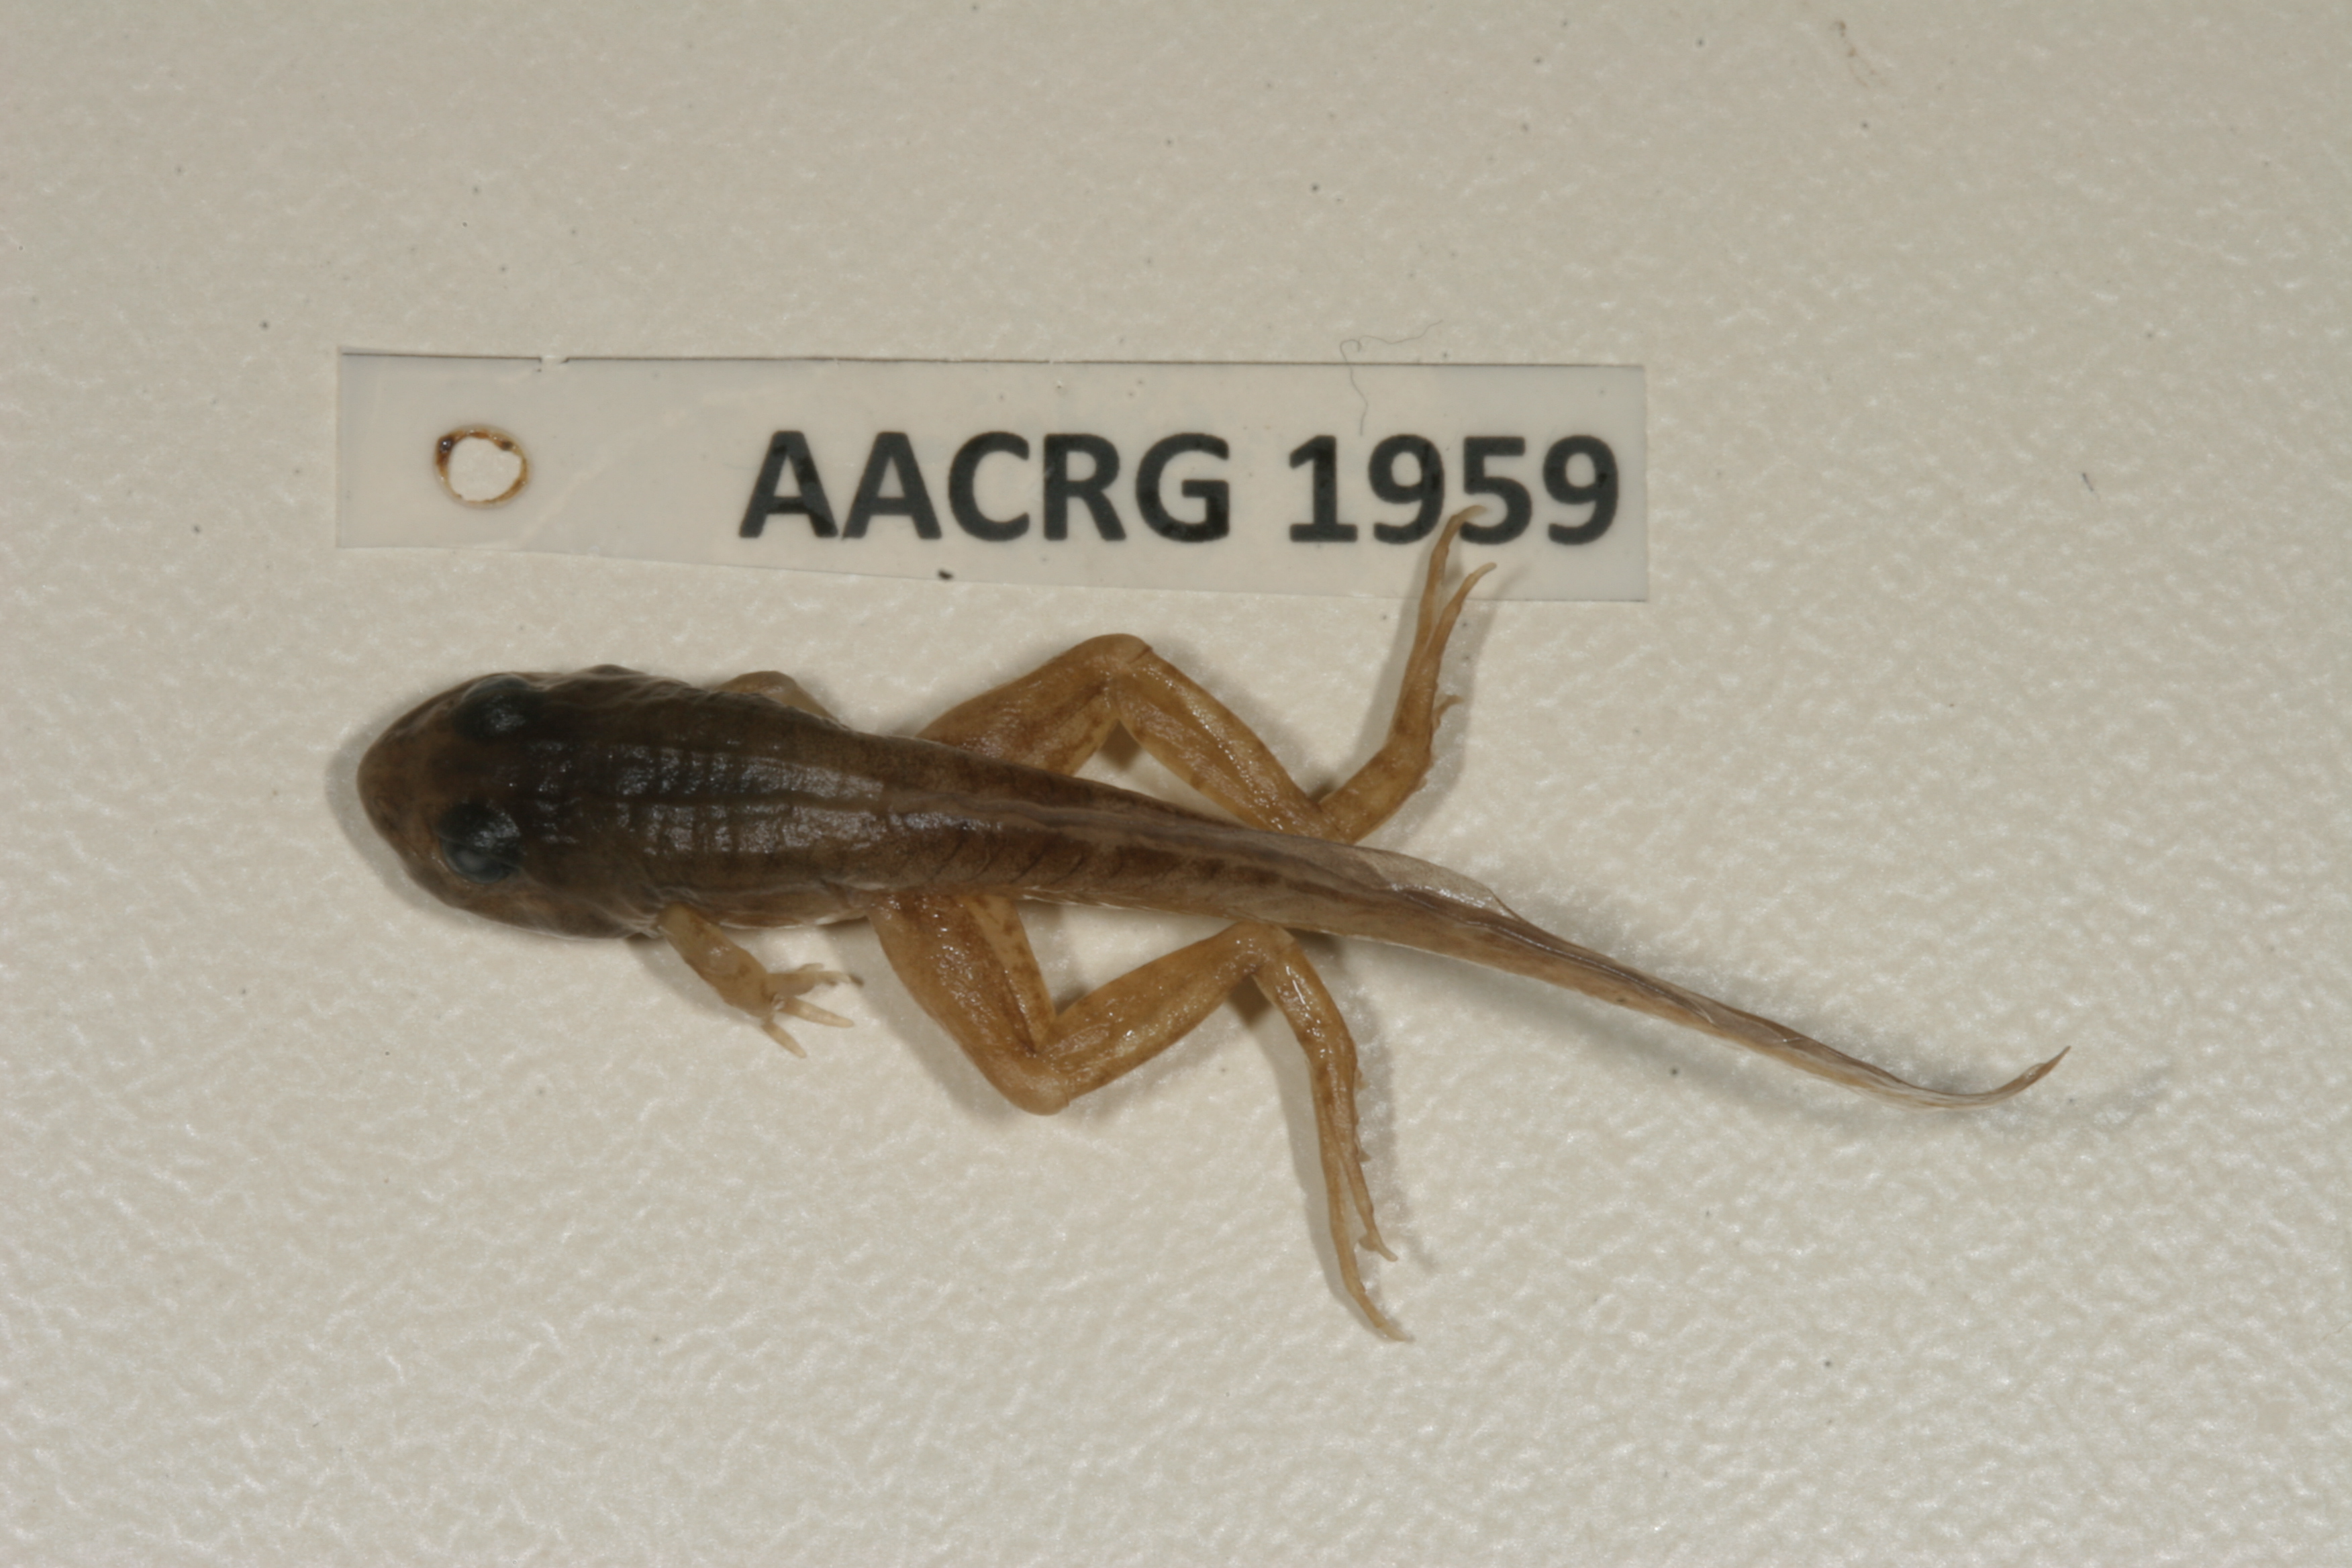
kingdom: Animalia
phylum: Chordata
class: Amphibia
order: Anura
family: Ptychadenidae
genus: Ptychadena
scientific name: Ptychadena taenioscelis
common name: Lukula grassland frog
